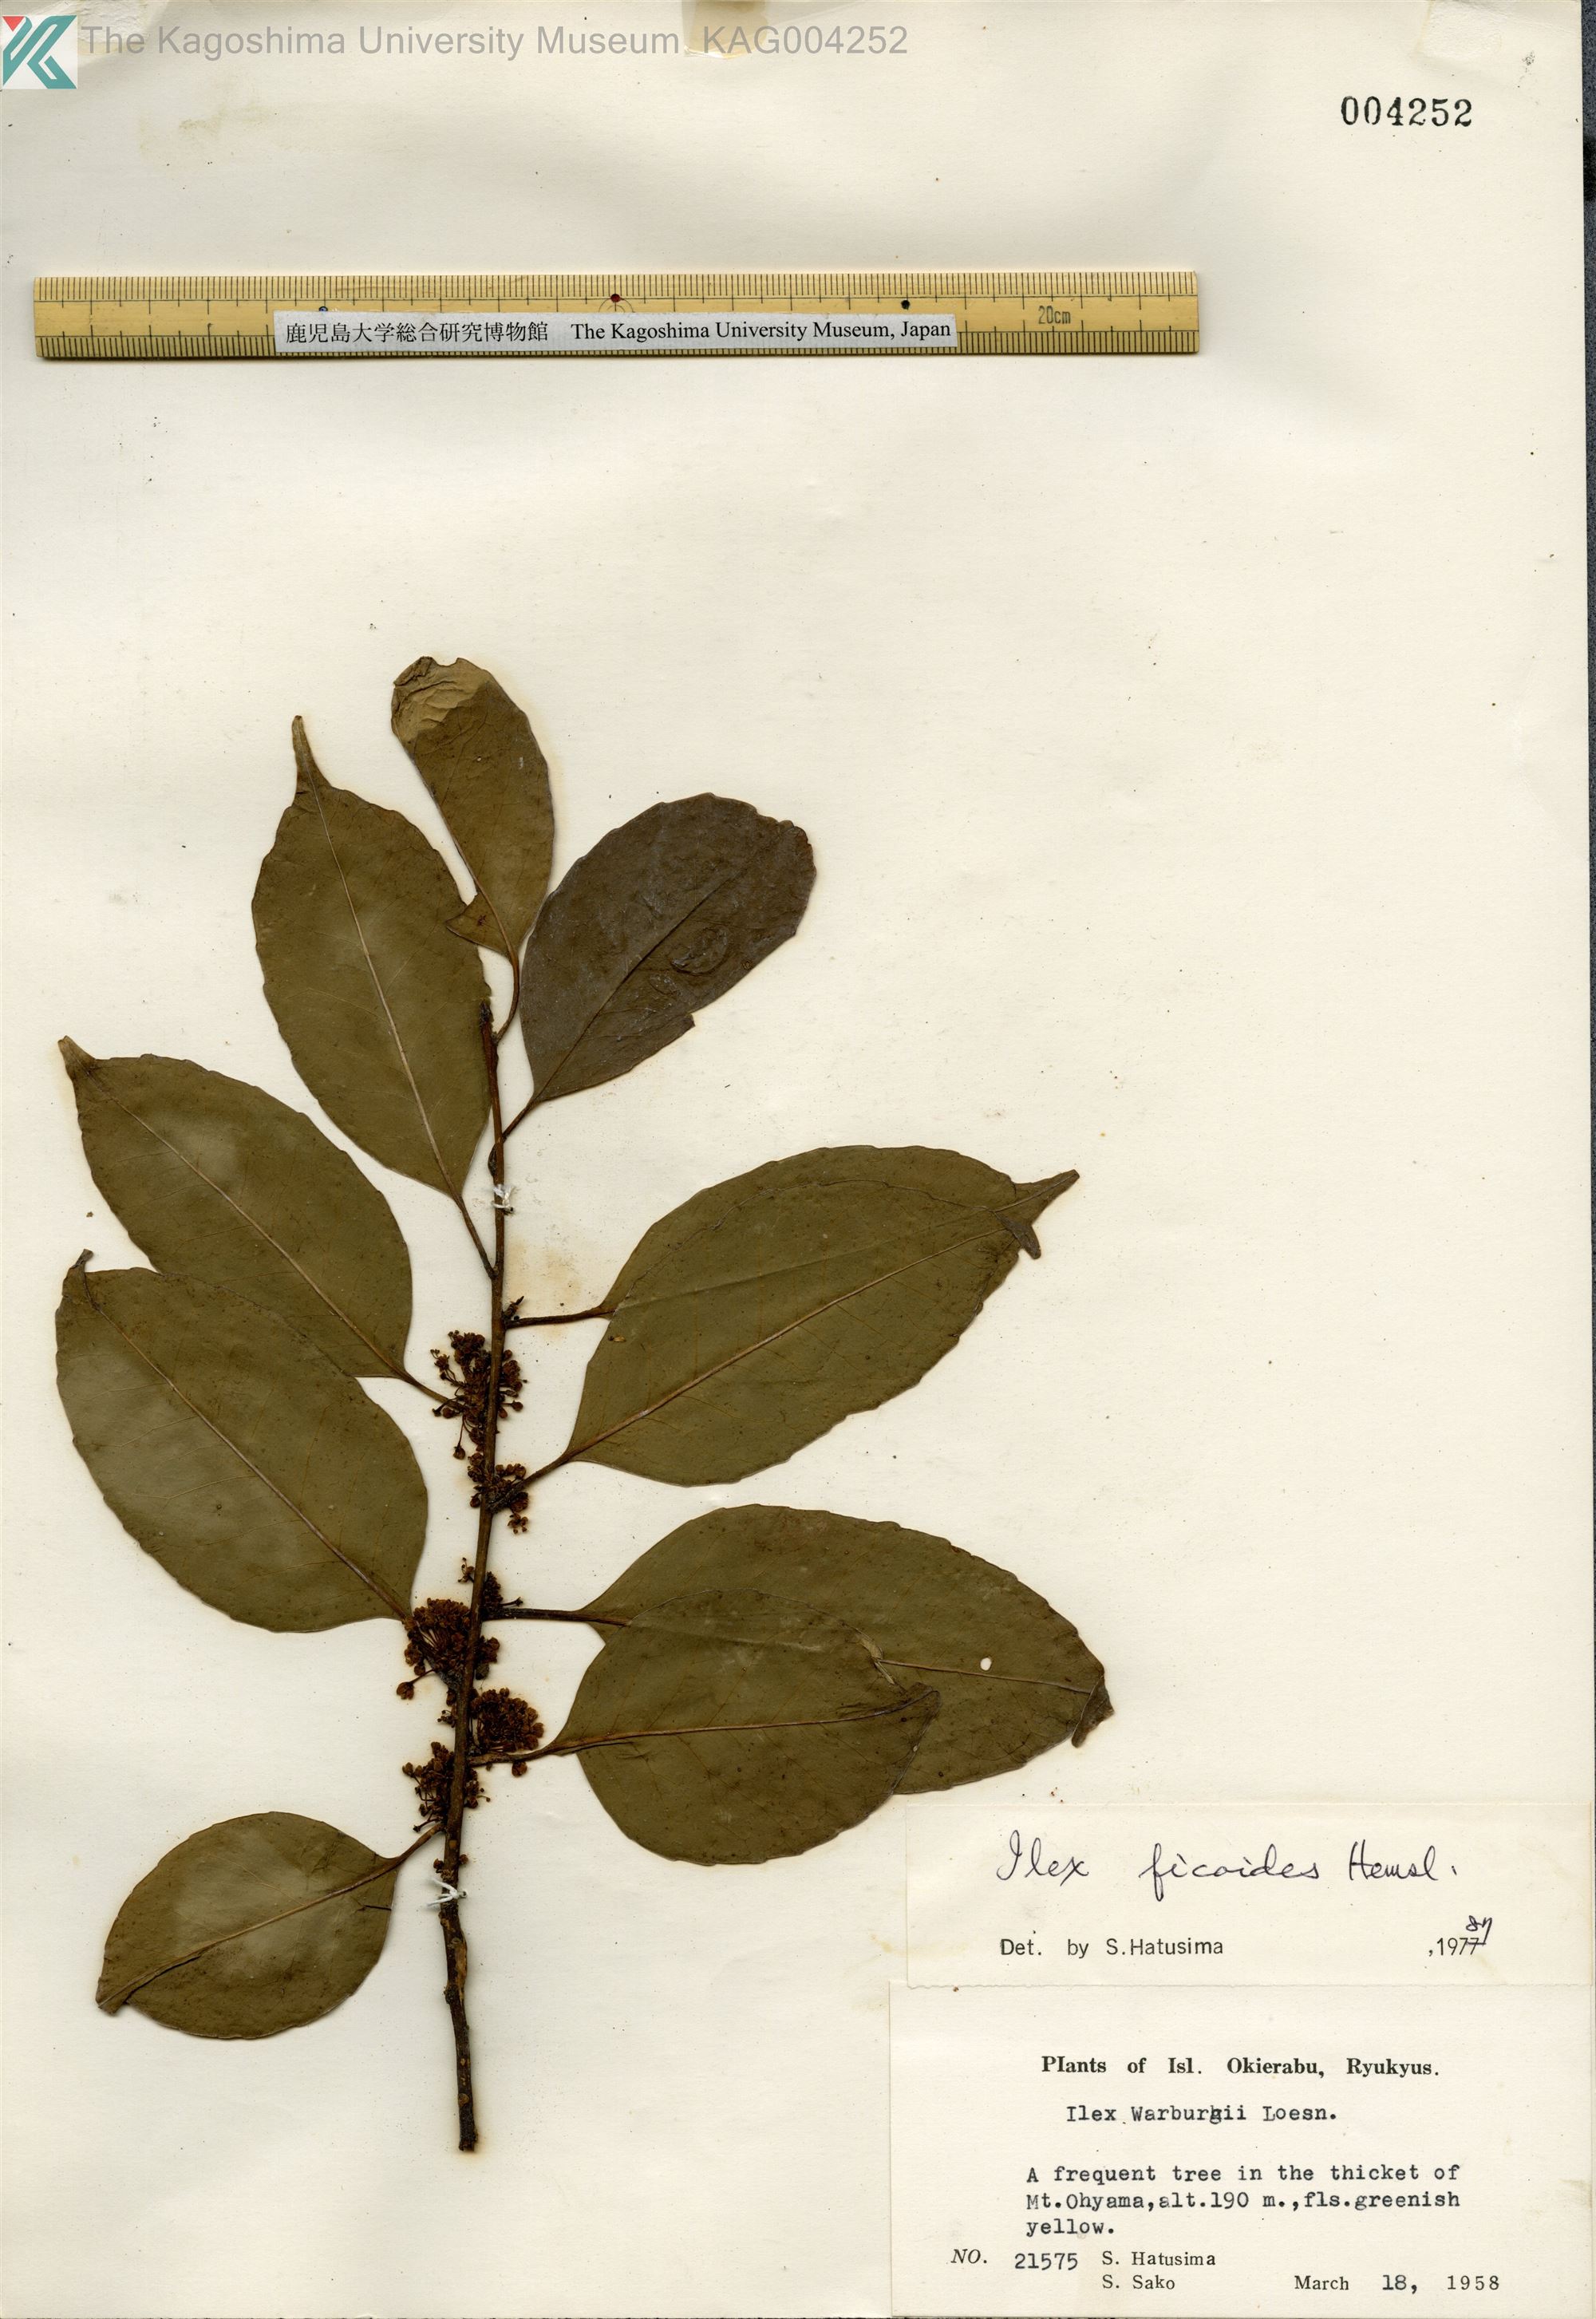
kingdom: Plantae
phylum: Tracheophyta
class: Magnoliopsida
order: Aquifoliales
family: Aquifoliaceae
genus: Ilex
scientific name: Ilex warburgii
